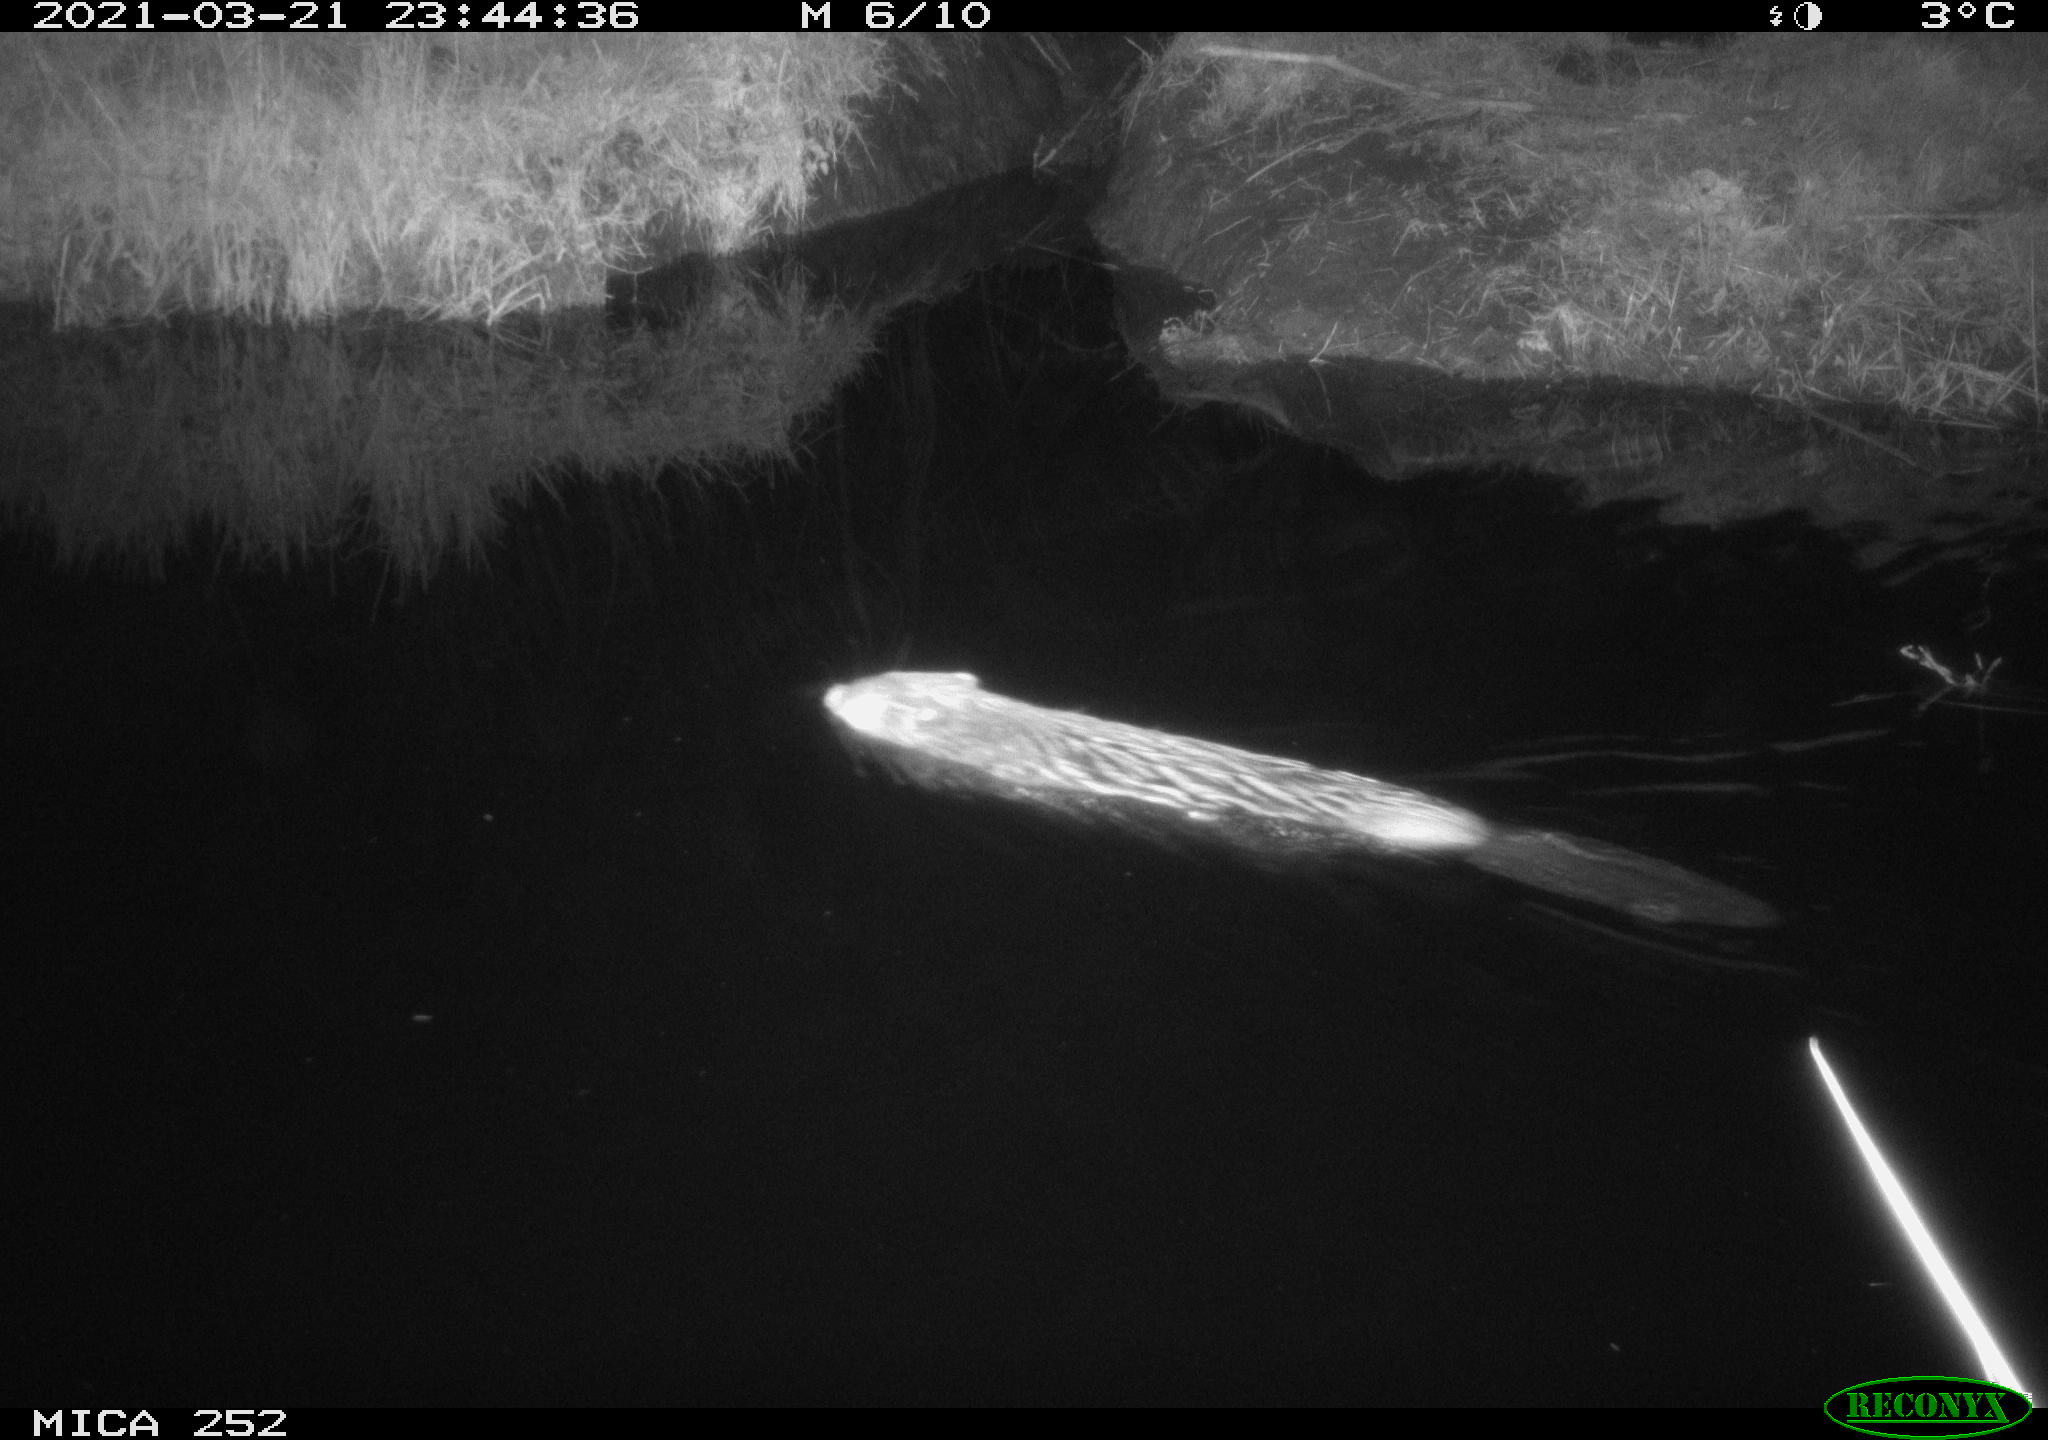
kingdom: Animalia
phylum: Chordata
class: Mammalia
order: Rodentia
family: Castoridae
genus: Castor
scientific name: Castor fiber
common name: Eurasian beaver
